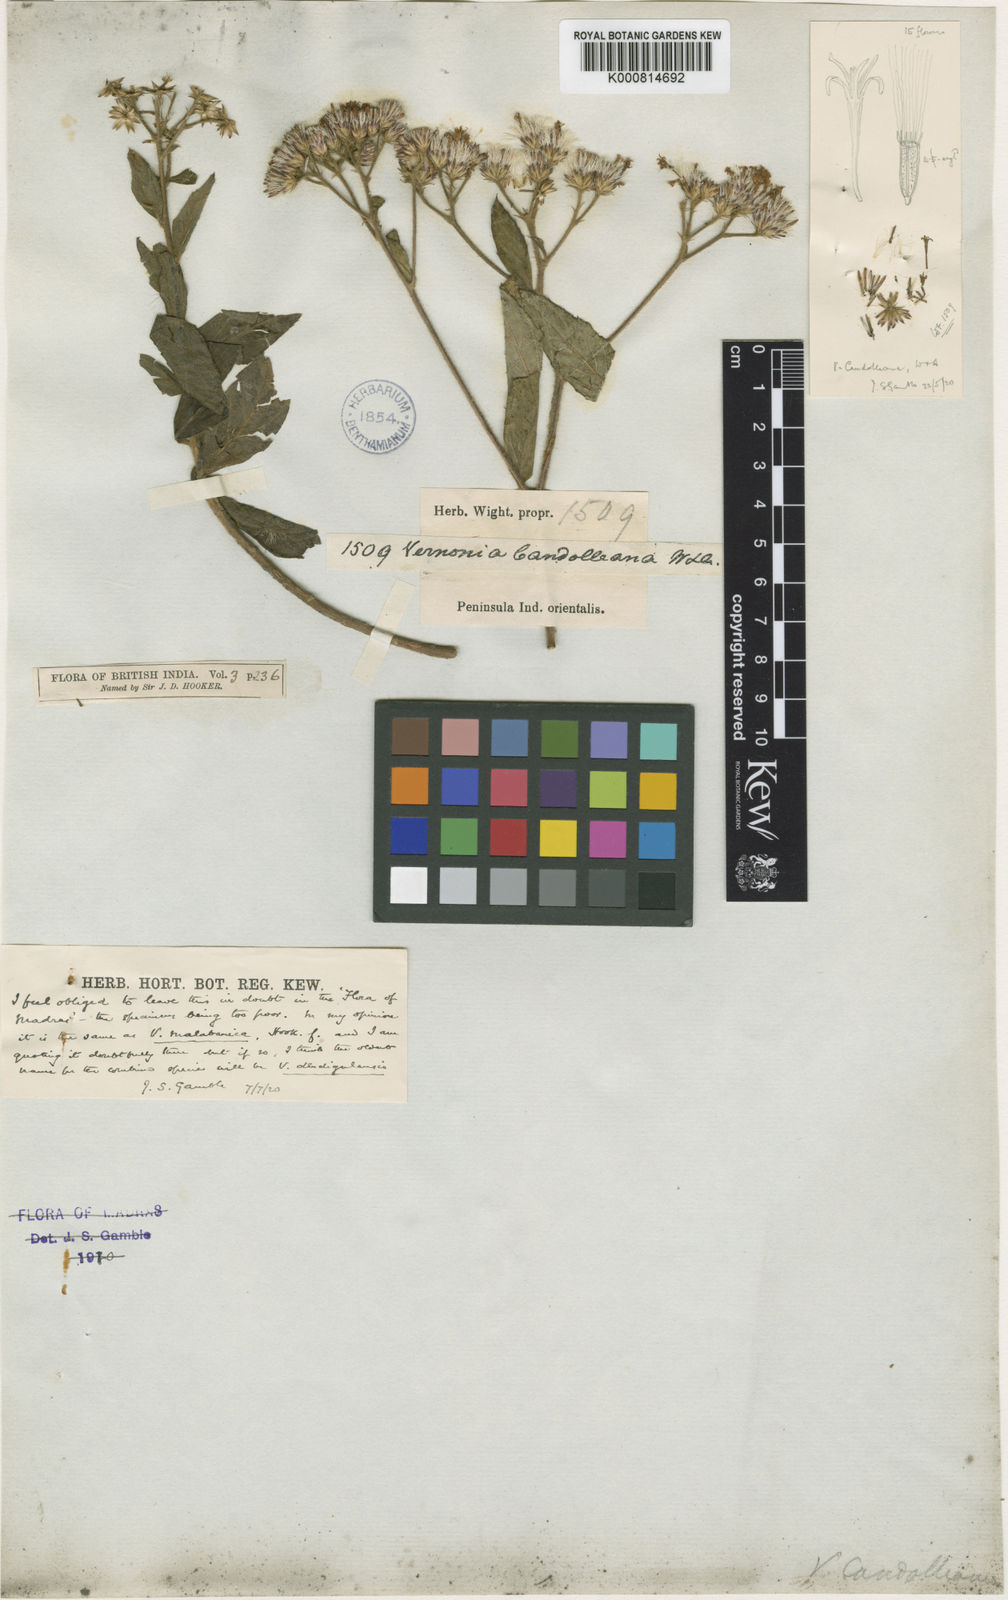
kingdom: Plantae
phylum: Tracheophyta
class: Magnoliopsida
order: Asterales
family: Asteraceae
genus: Cyanthillium
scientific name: Cyanthillium conyzoides
